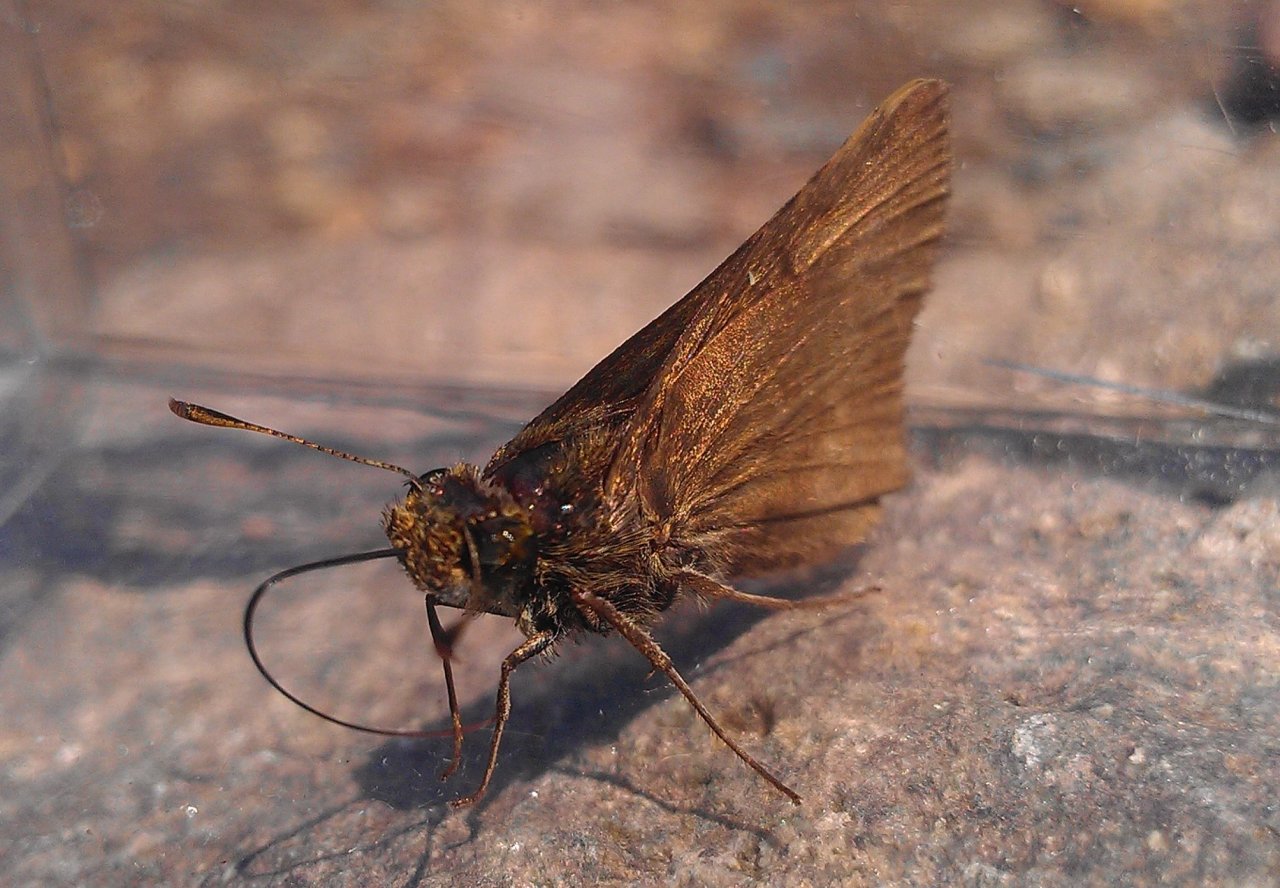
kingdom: Animalia
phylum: Arthropoda
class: Insecta
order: Lepidoptera
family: Hesperiidae
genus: Euphyes
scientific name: Euphyes vestris
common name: Dun Skipper
